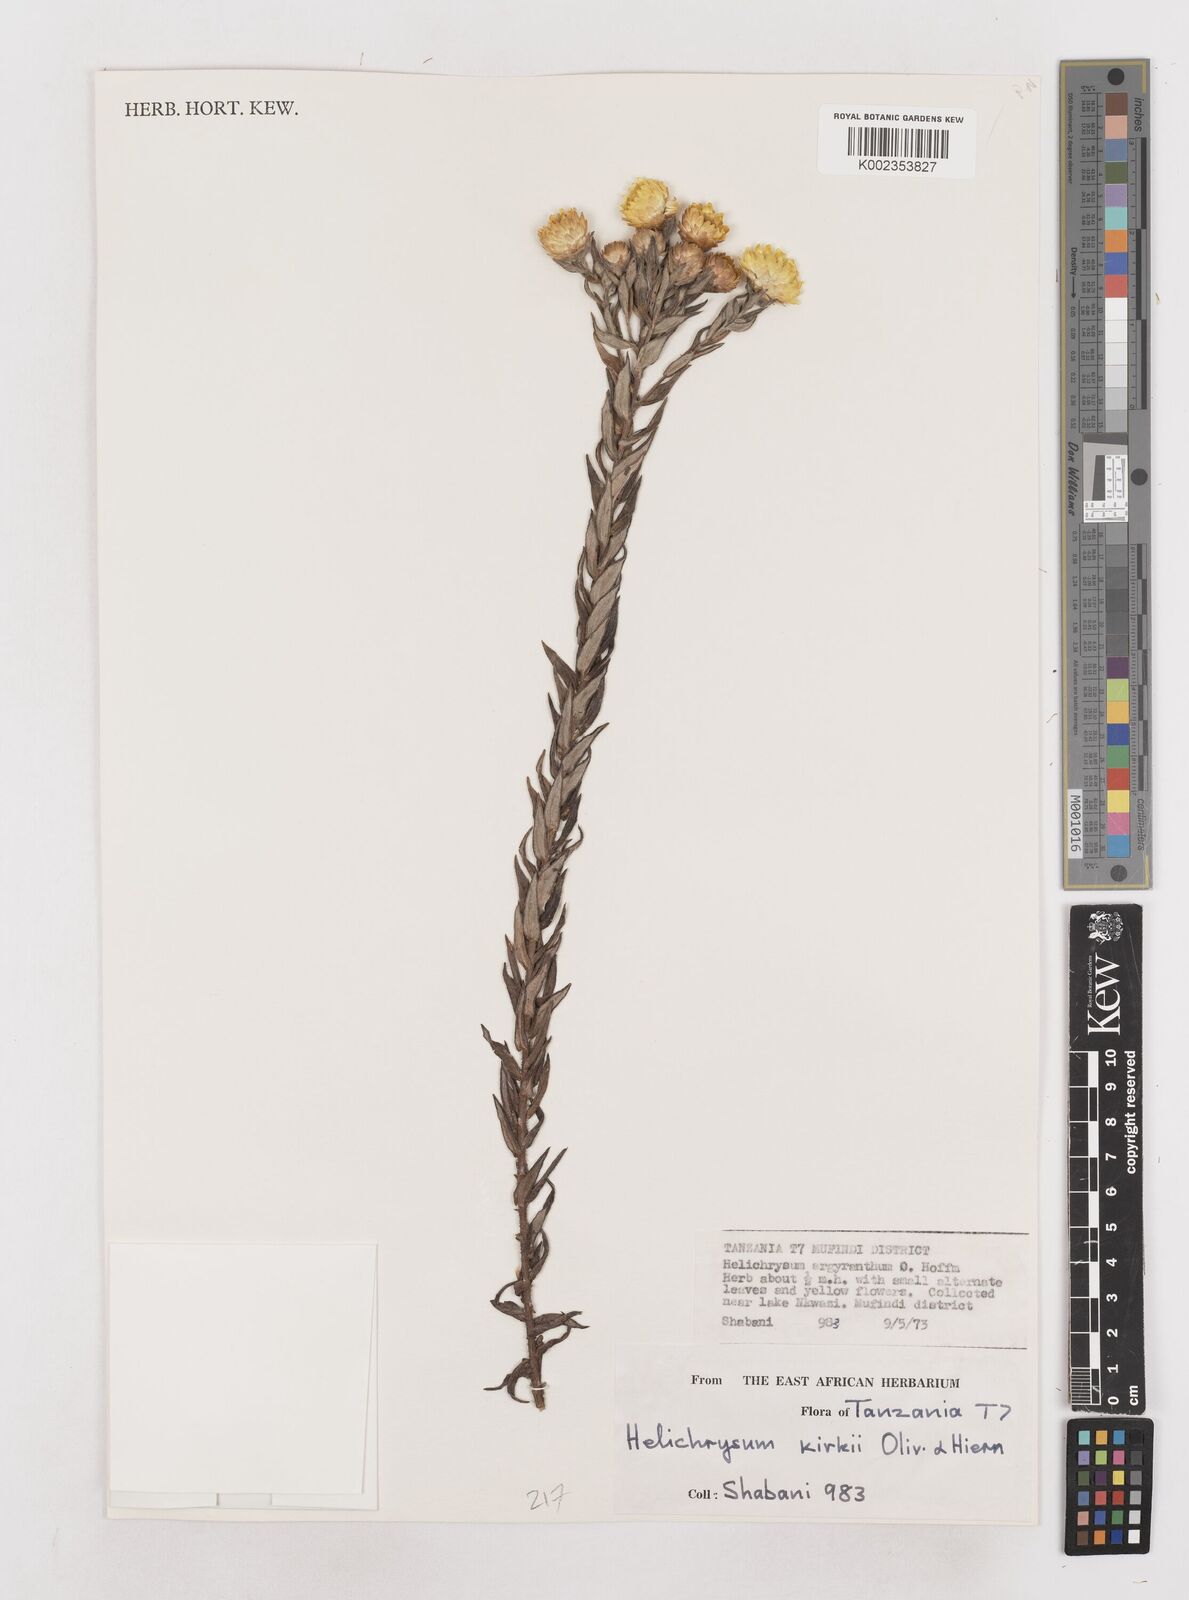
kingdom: Plantae
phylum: Tracheophyta
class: Magnoliopsida
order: Asterales
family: Asteraceae
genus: Helichrysum
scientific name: Helichrysum kirkii
